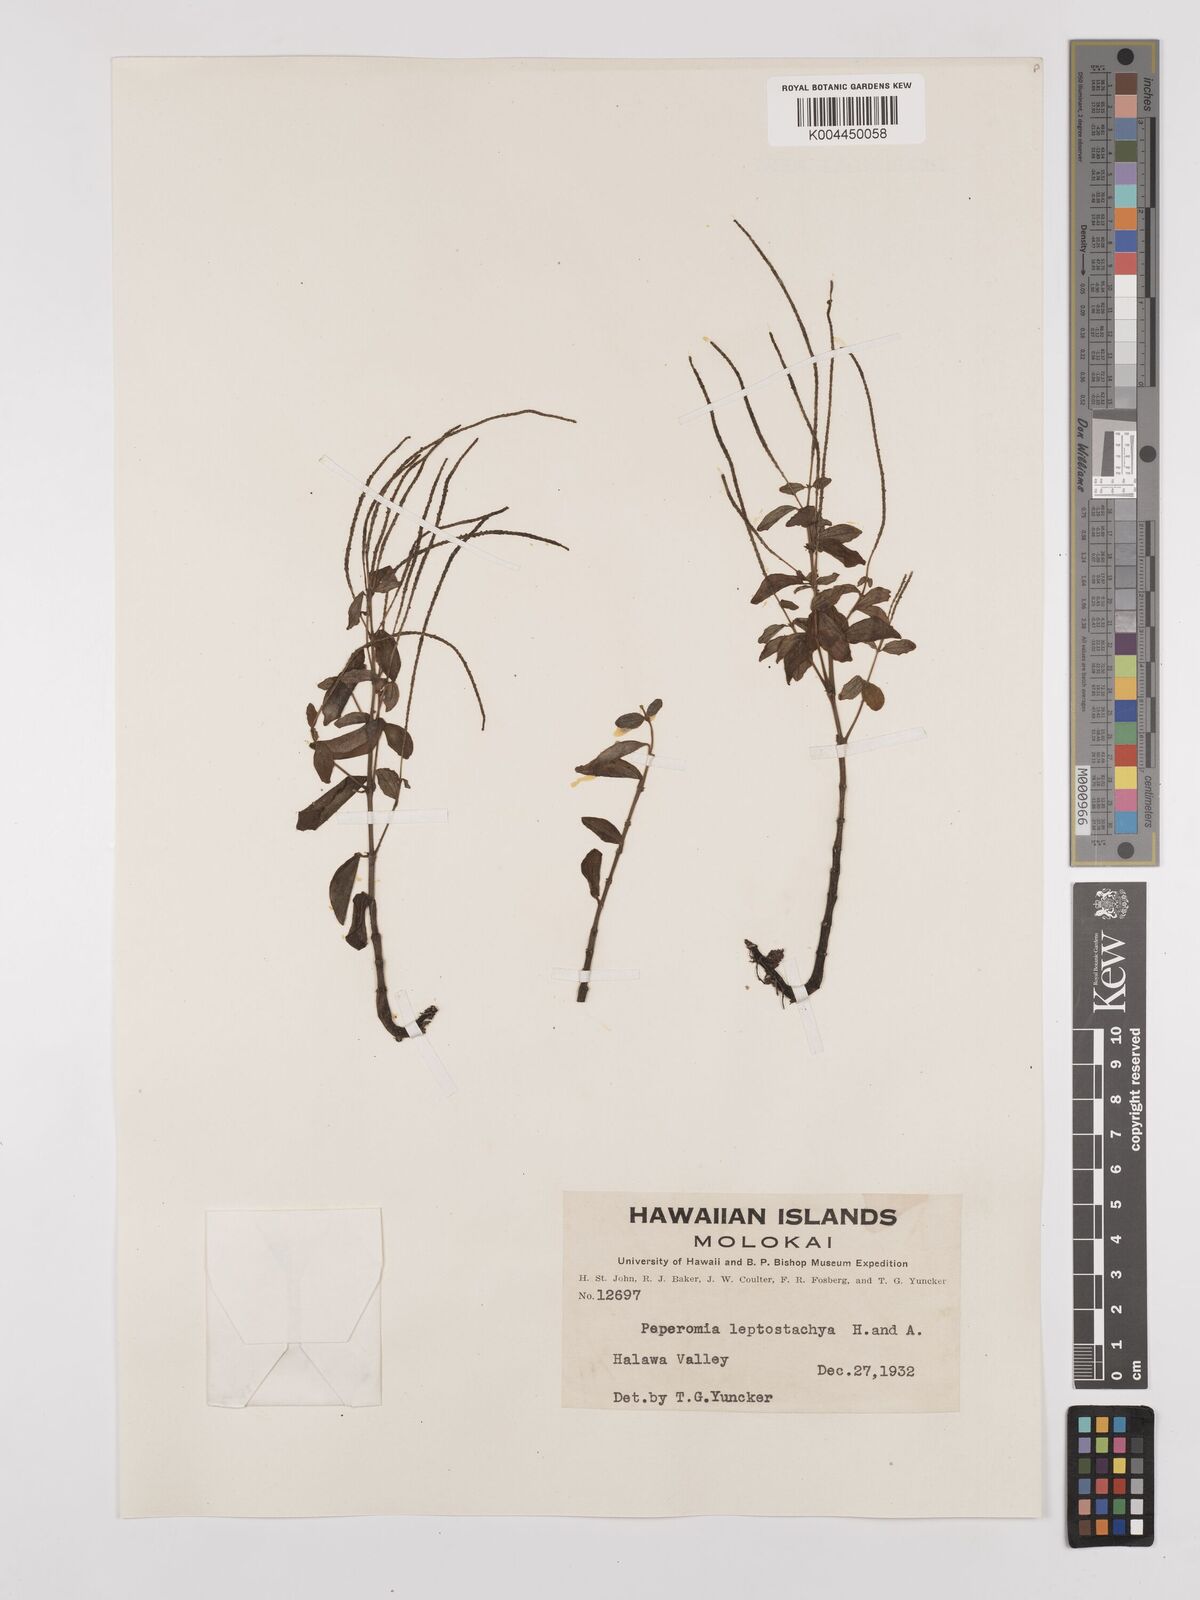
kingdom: Plantae
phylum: Tracheophyta
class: Magnoliopsida
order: Piperales
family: Piperaceae
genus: Peperomia
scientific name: Peperomia leptostachya
